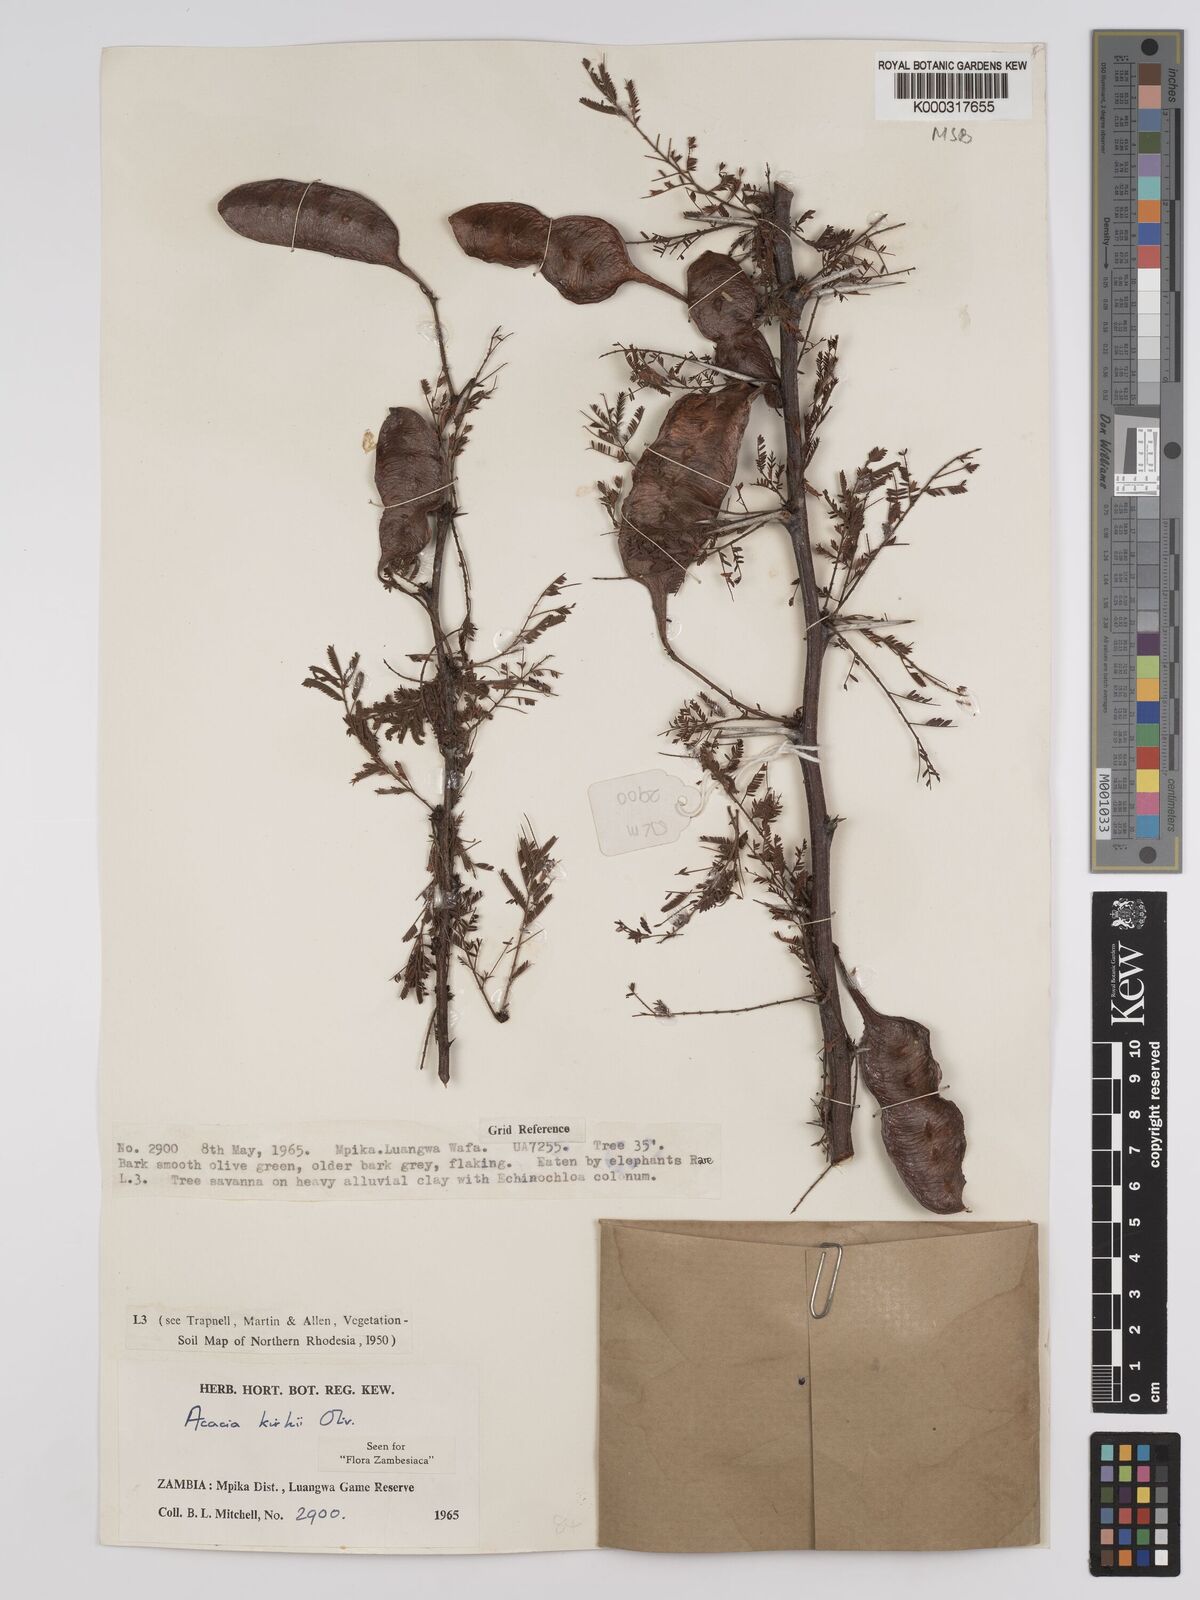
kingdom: Plantae
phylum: Tracheophyta
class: Magnoliopsida
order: Fabales
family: Fabaceae
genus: Vachellia
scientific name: Vachellia kirkii
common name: Flood-plain acacia
